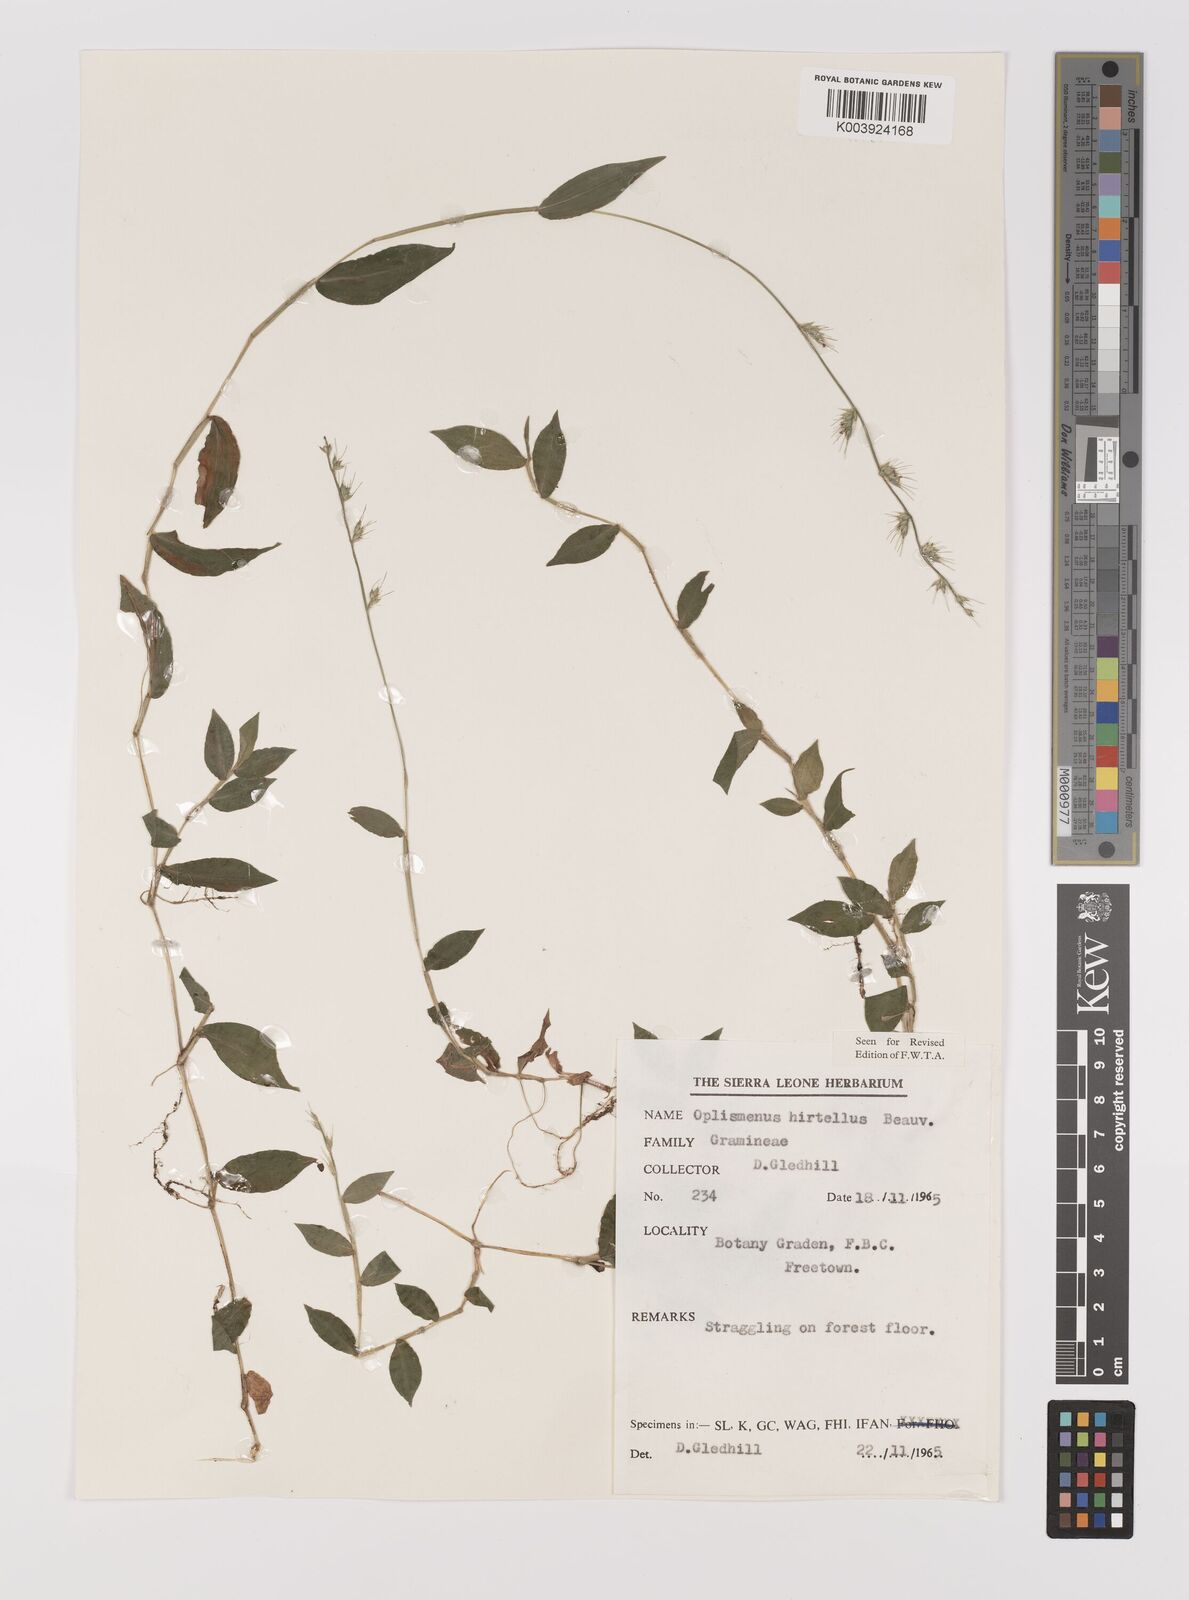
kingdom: Plantae
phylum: Tracheophyta
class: Liliopsida
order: Poales
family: Poaceae
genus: Oplismenus
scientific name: Oplismenus hirtellus
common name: Basketgrass
